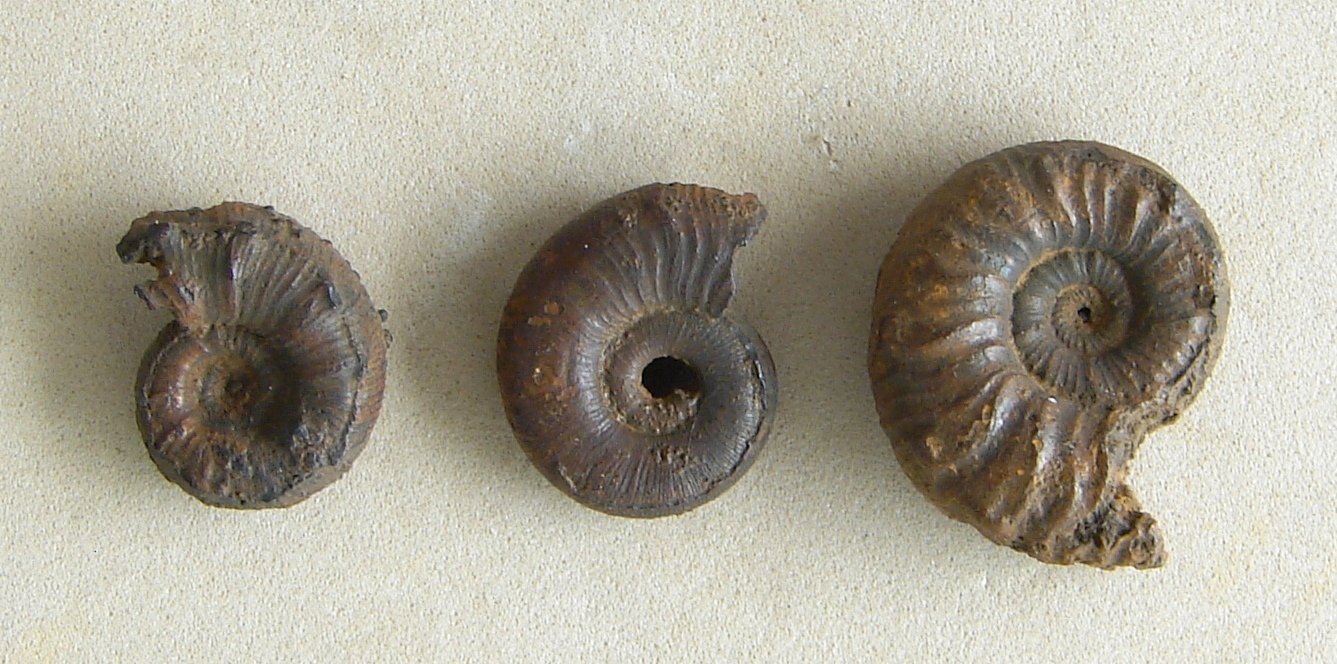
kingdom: Animalia
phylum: Mollusca
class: Cephalopoda
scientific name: Cephalopoda
